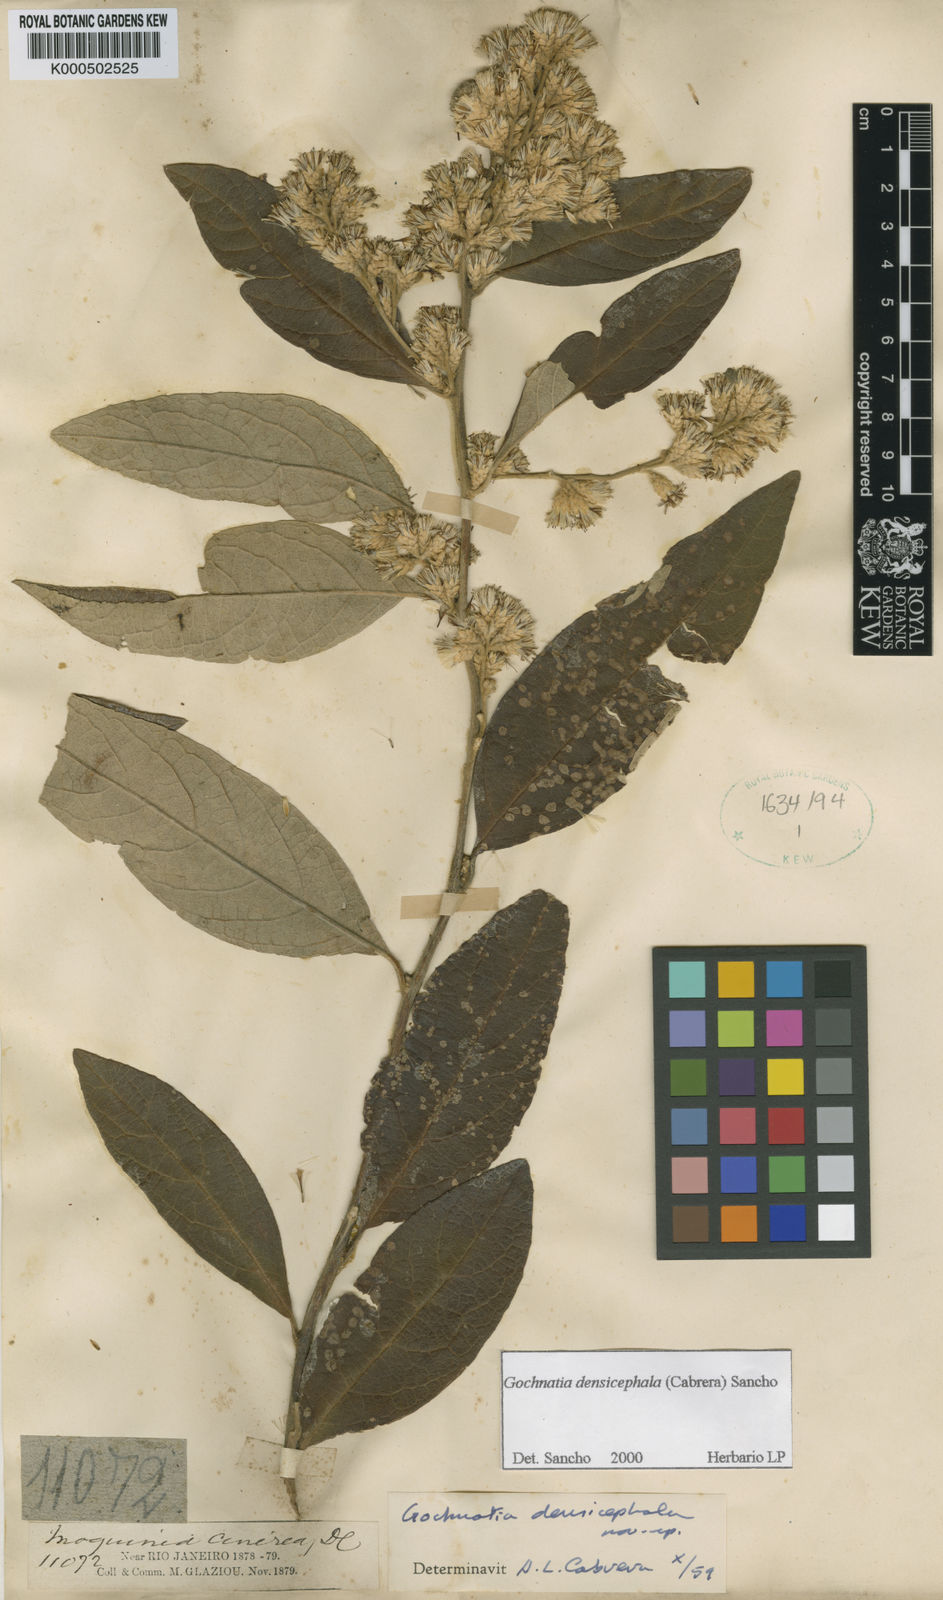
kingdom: Plantae
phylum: Tracheophyta
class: Magnoliopsida
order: Asterales
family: Asteraceae
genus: Moquiniastrum
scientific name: Moquiniastrum densicephalum
